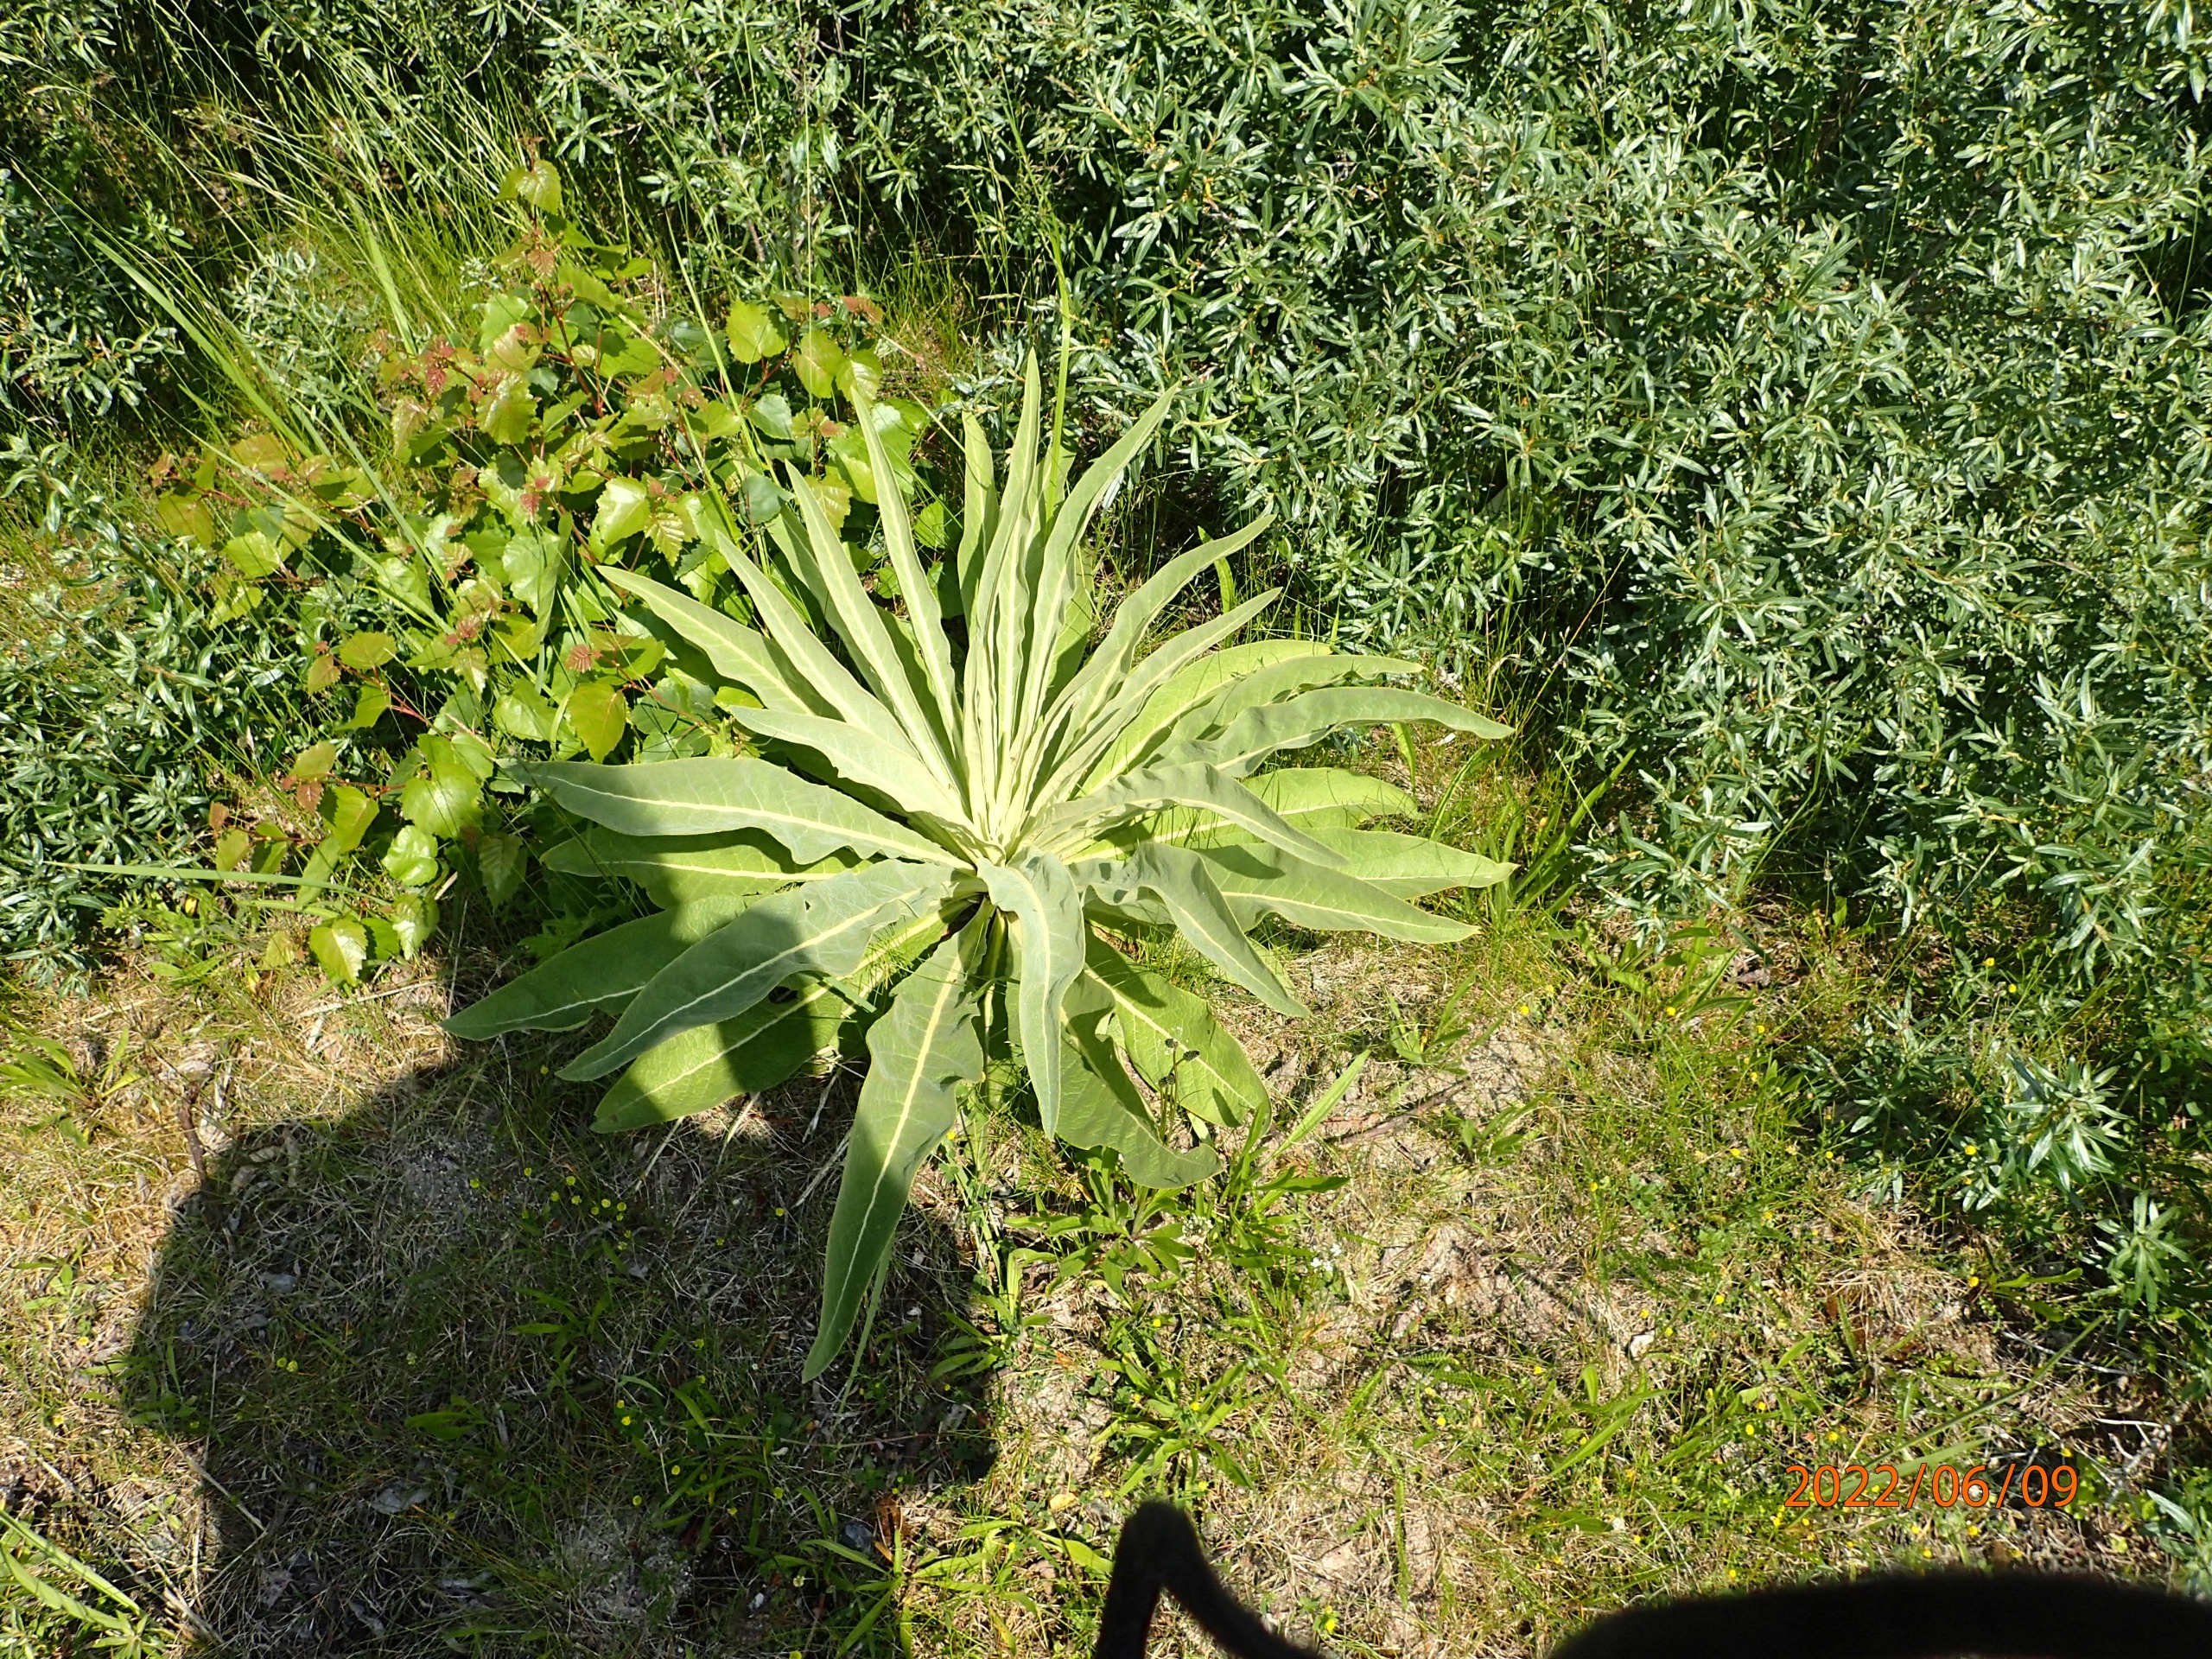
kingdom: Plantae
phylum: Tracheophyta
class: Magnoliopsida
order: Lamiales
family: Scrophulariaceae
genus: Verbascum
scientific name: Verbascum speciosum
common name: Kandelaber-kongelys
